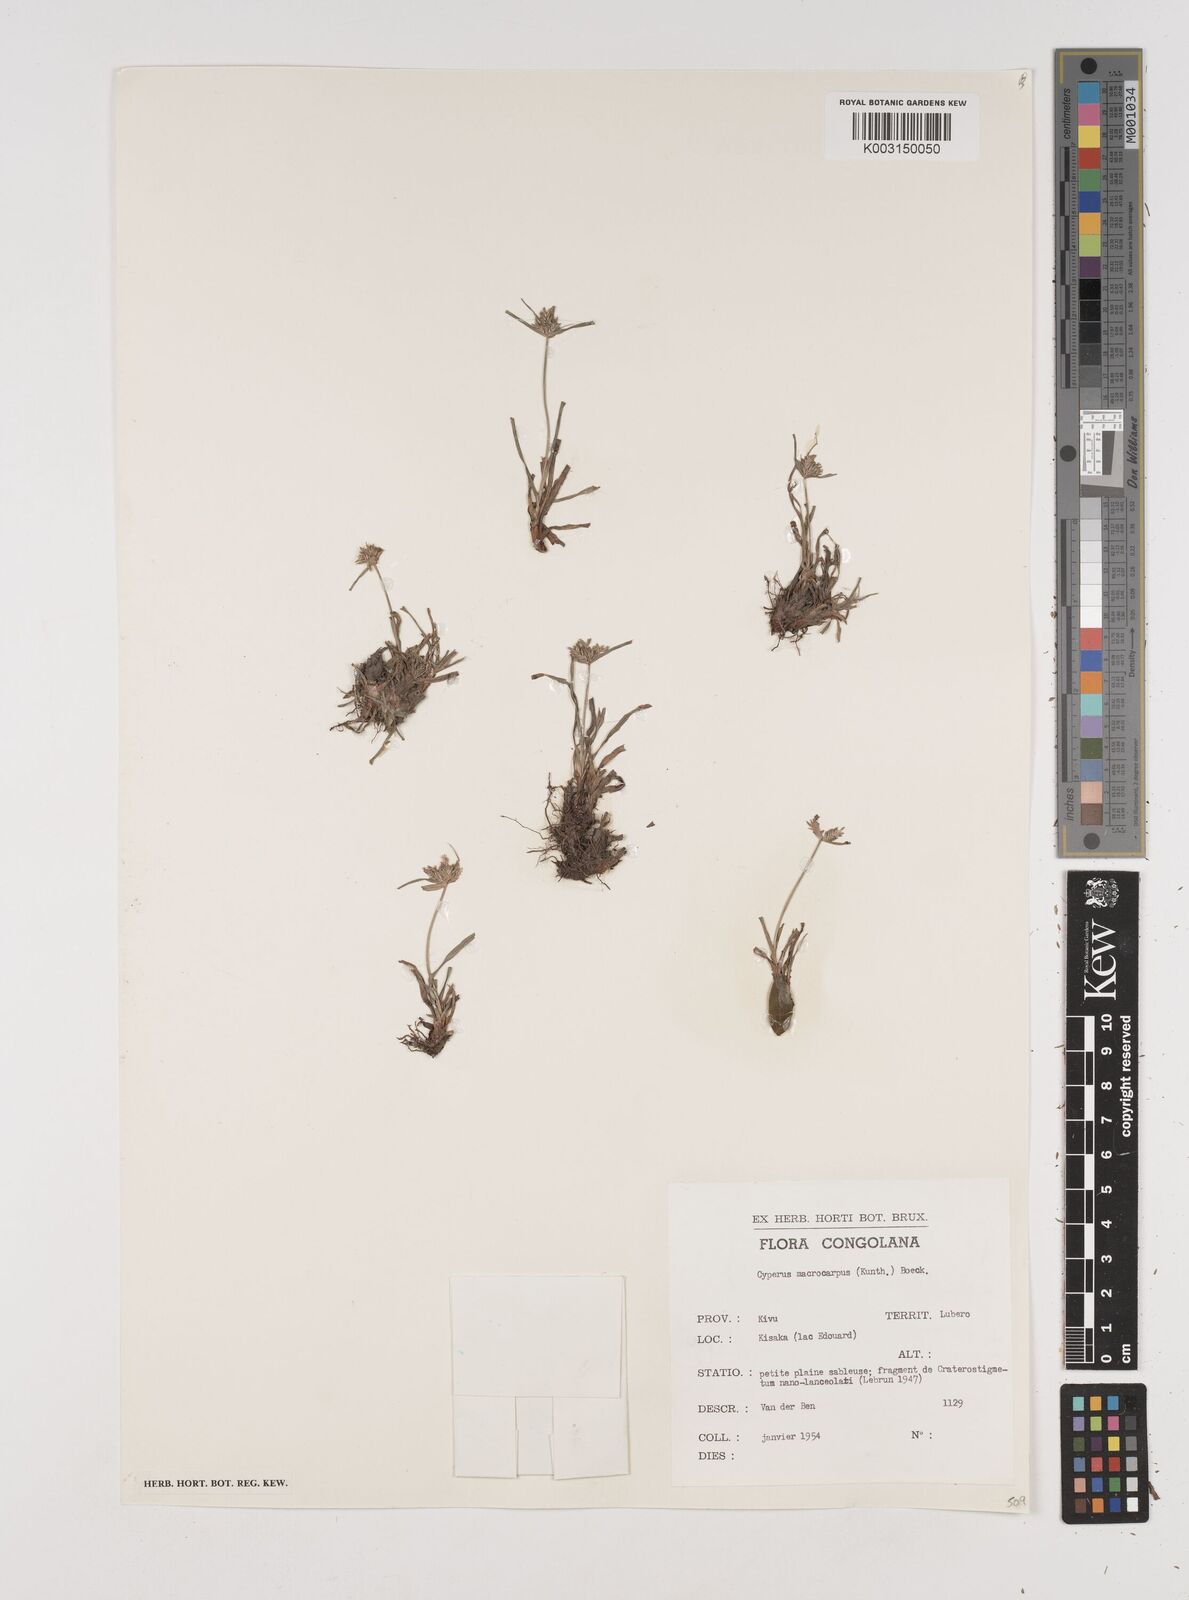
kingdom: Plantae
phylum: Tracheophyta
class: Liliopsida
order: Poales
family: Cyperaceae
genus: Cyperus
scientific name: Cyperus macrocarpus
